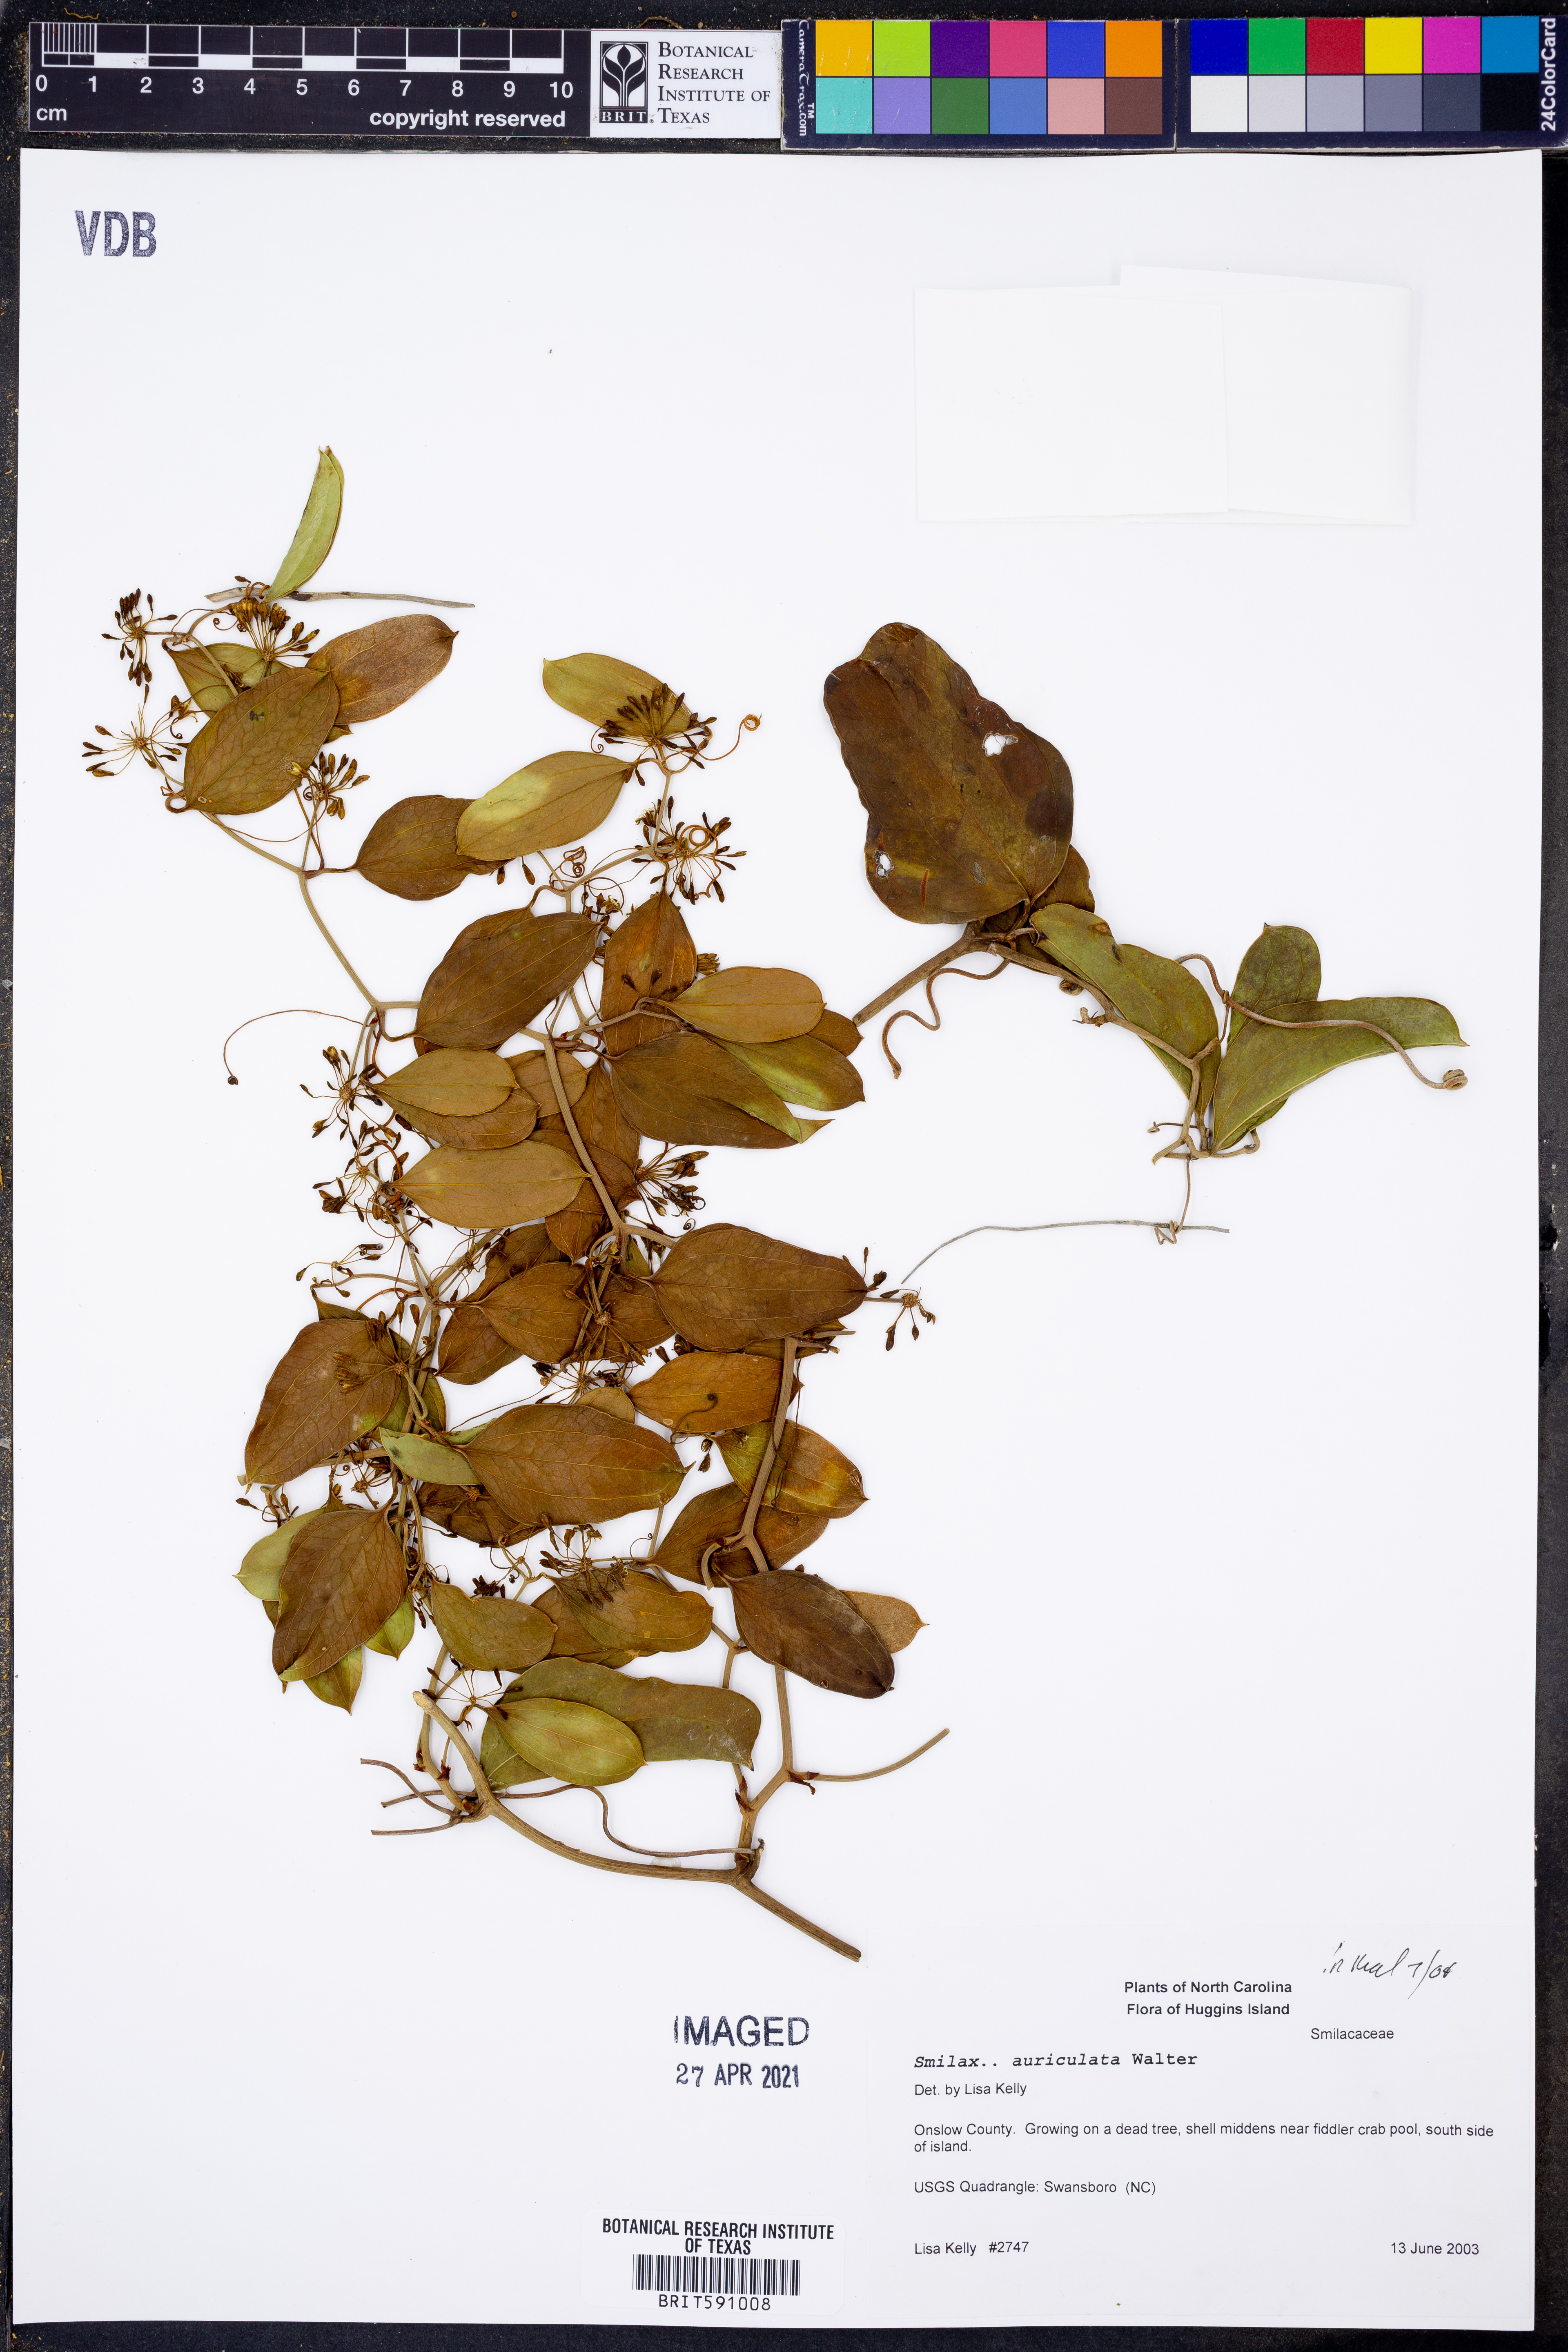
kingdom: Plantae
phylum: Tracheophyta
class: Liliopsida
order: Liliales
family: Smilacaceae
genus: Smilax
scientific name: Smilax auriculata
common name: Wild bamboo
